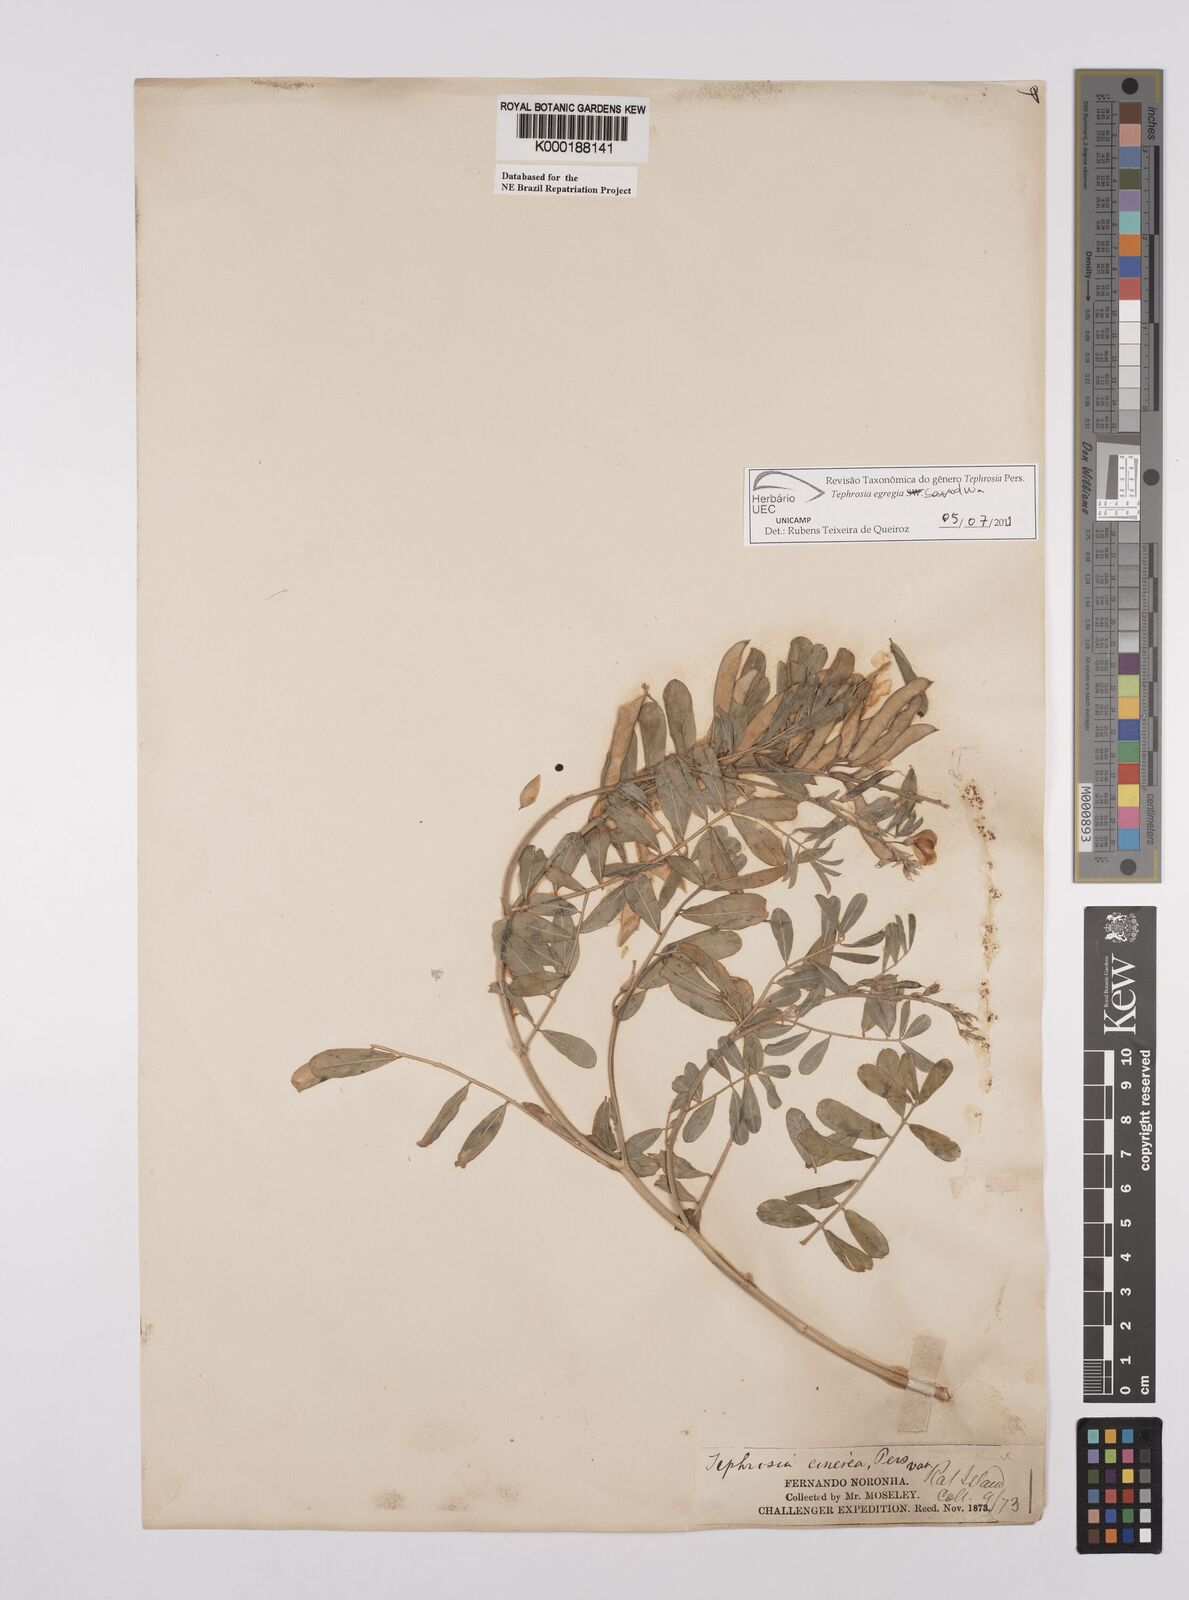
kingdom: Plantae
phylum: Tracheophyta
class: Magnoliopsida
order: Fabales
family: Fabaceae
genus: Tephrosia
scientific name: Tephrosia egregia
